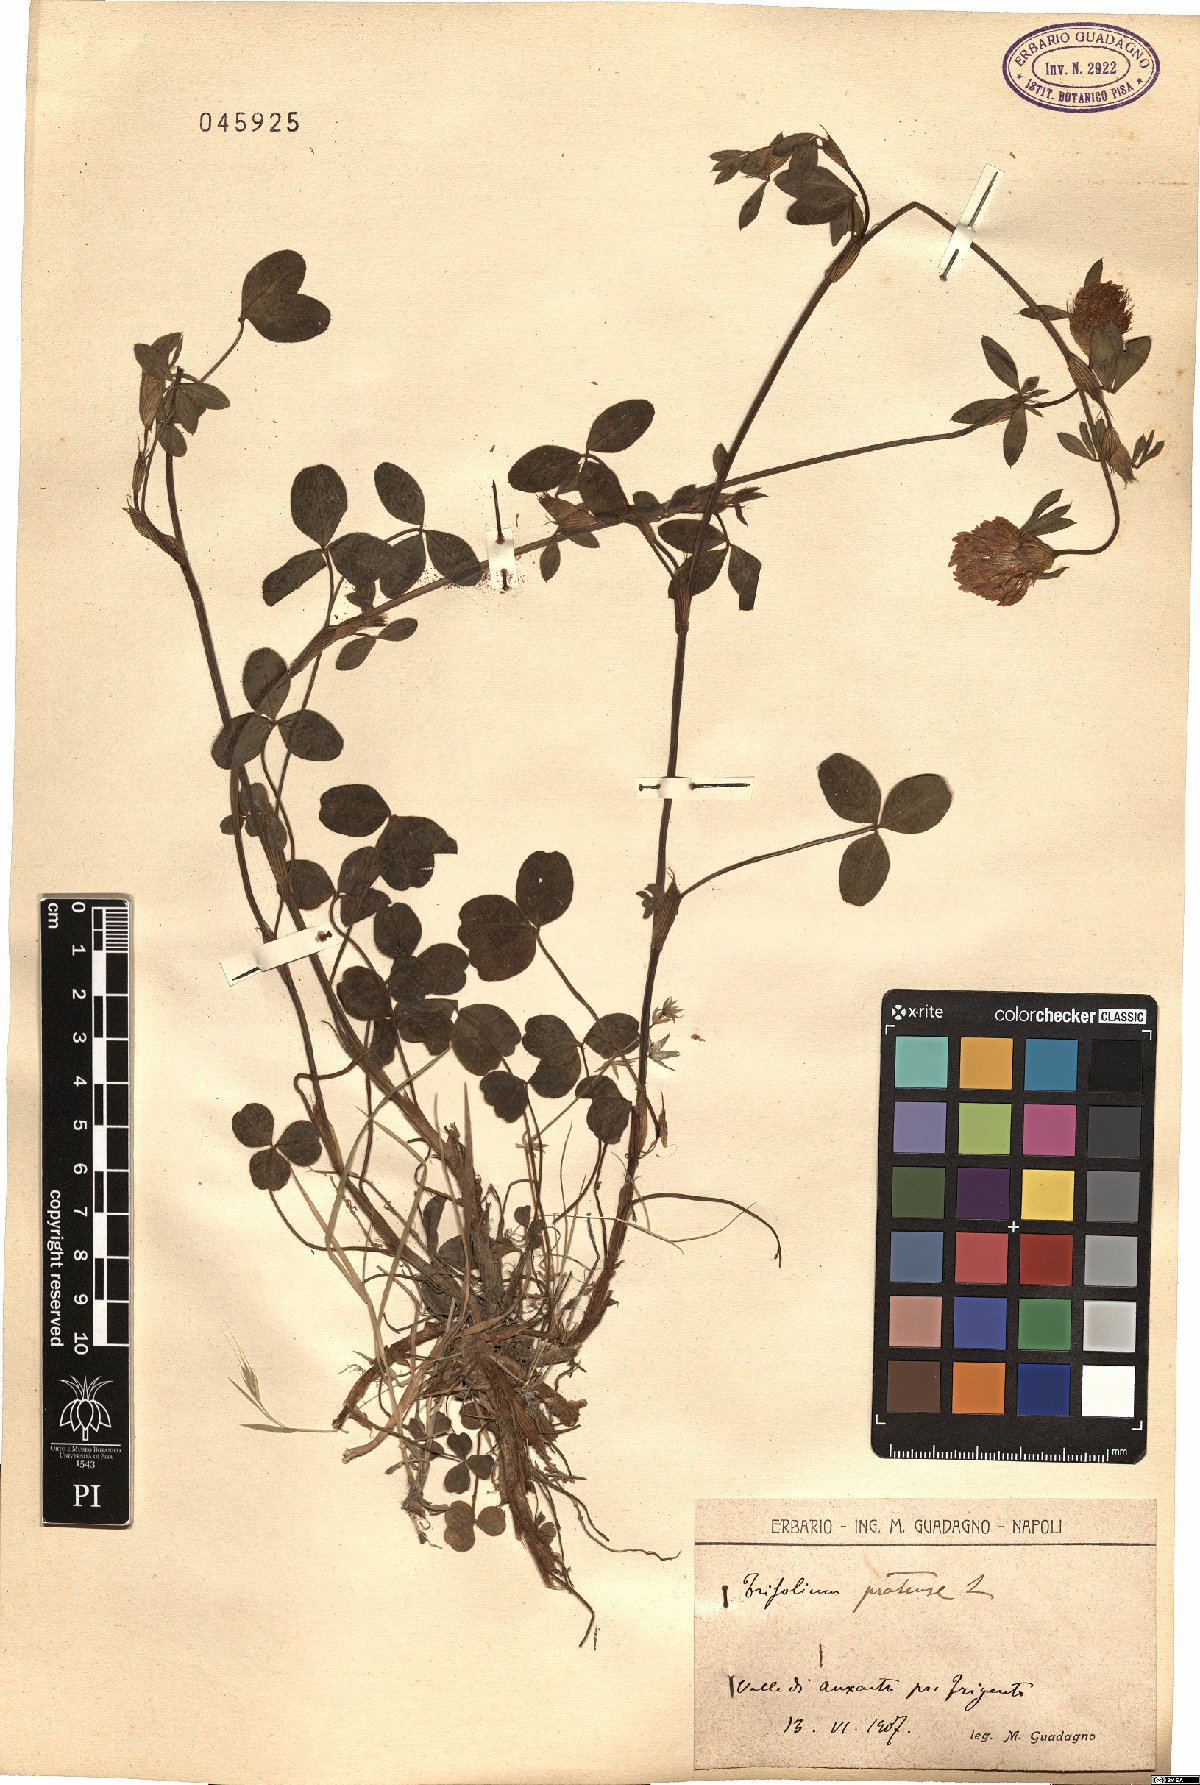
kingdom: Plantae
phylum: Tracheophyta
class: Magnoliopsida
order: Fabales
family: Fabaceae
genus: Trifolium
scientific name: Trifolium pratense
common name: Red clover
